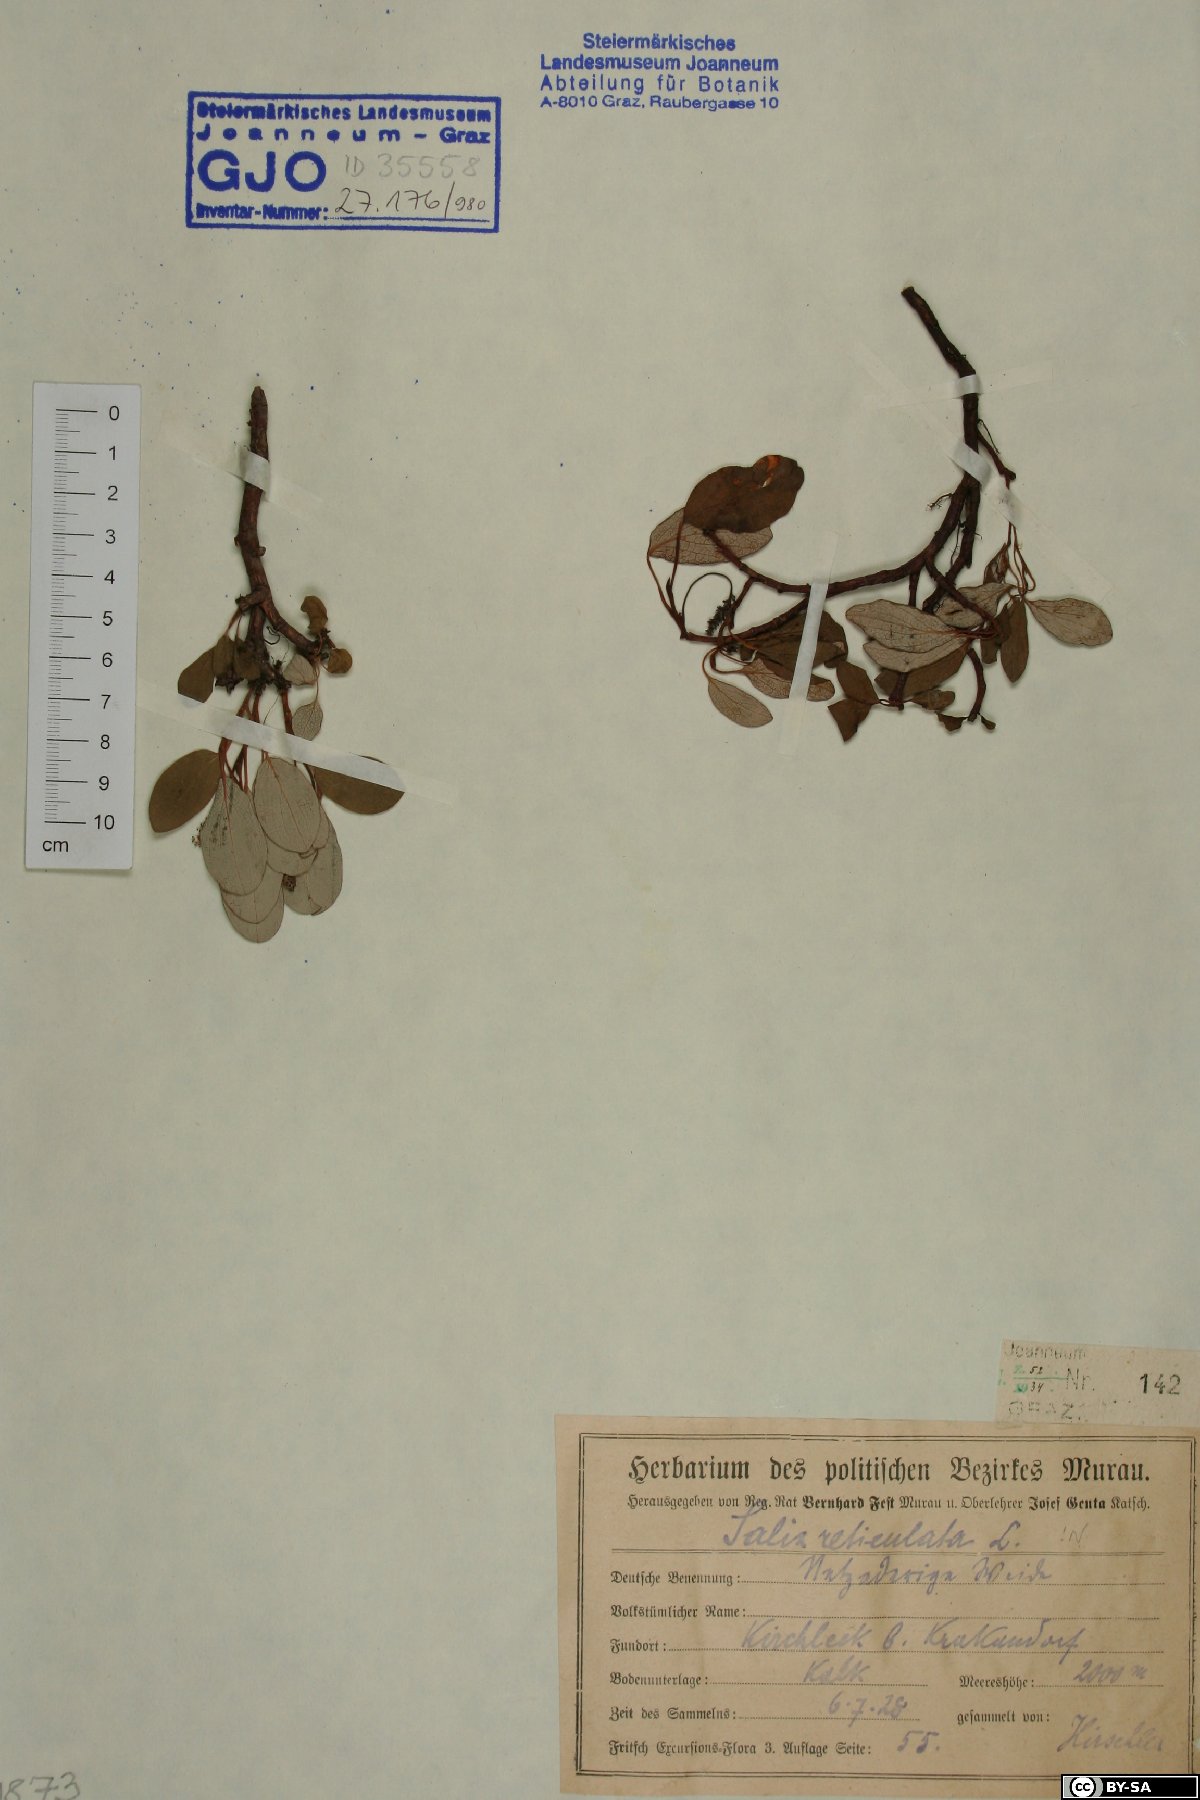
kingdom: Plantae
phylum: Tracheophyta
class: Magnoliopsida
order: Malpighiales
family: Salicaceae
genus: Salix
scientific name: Salix reticulata
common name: Net-leaved willow
